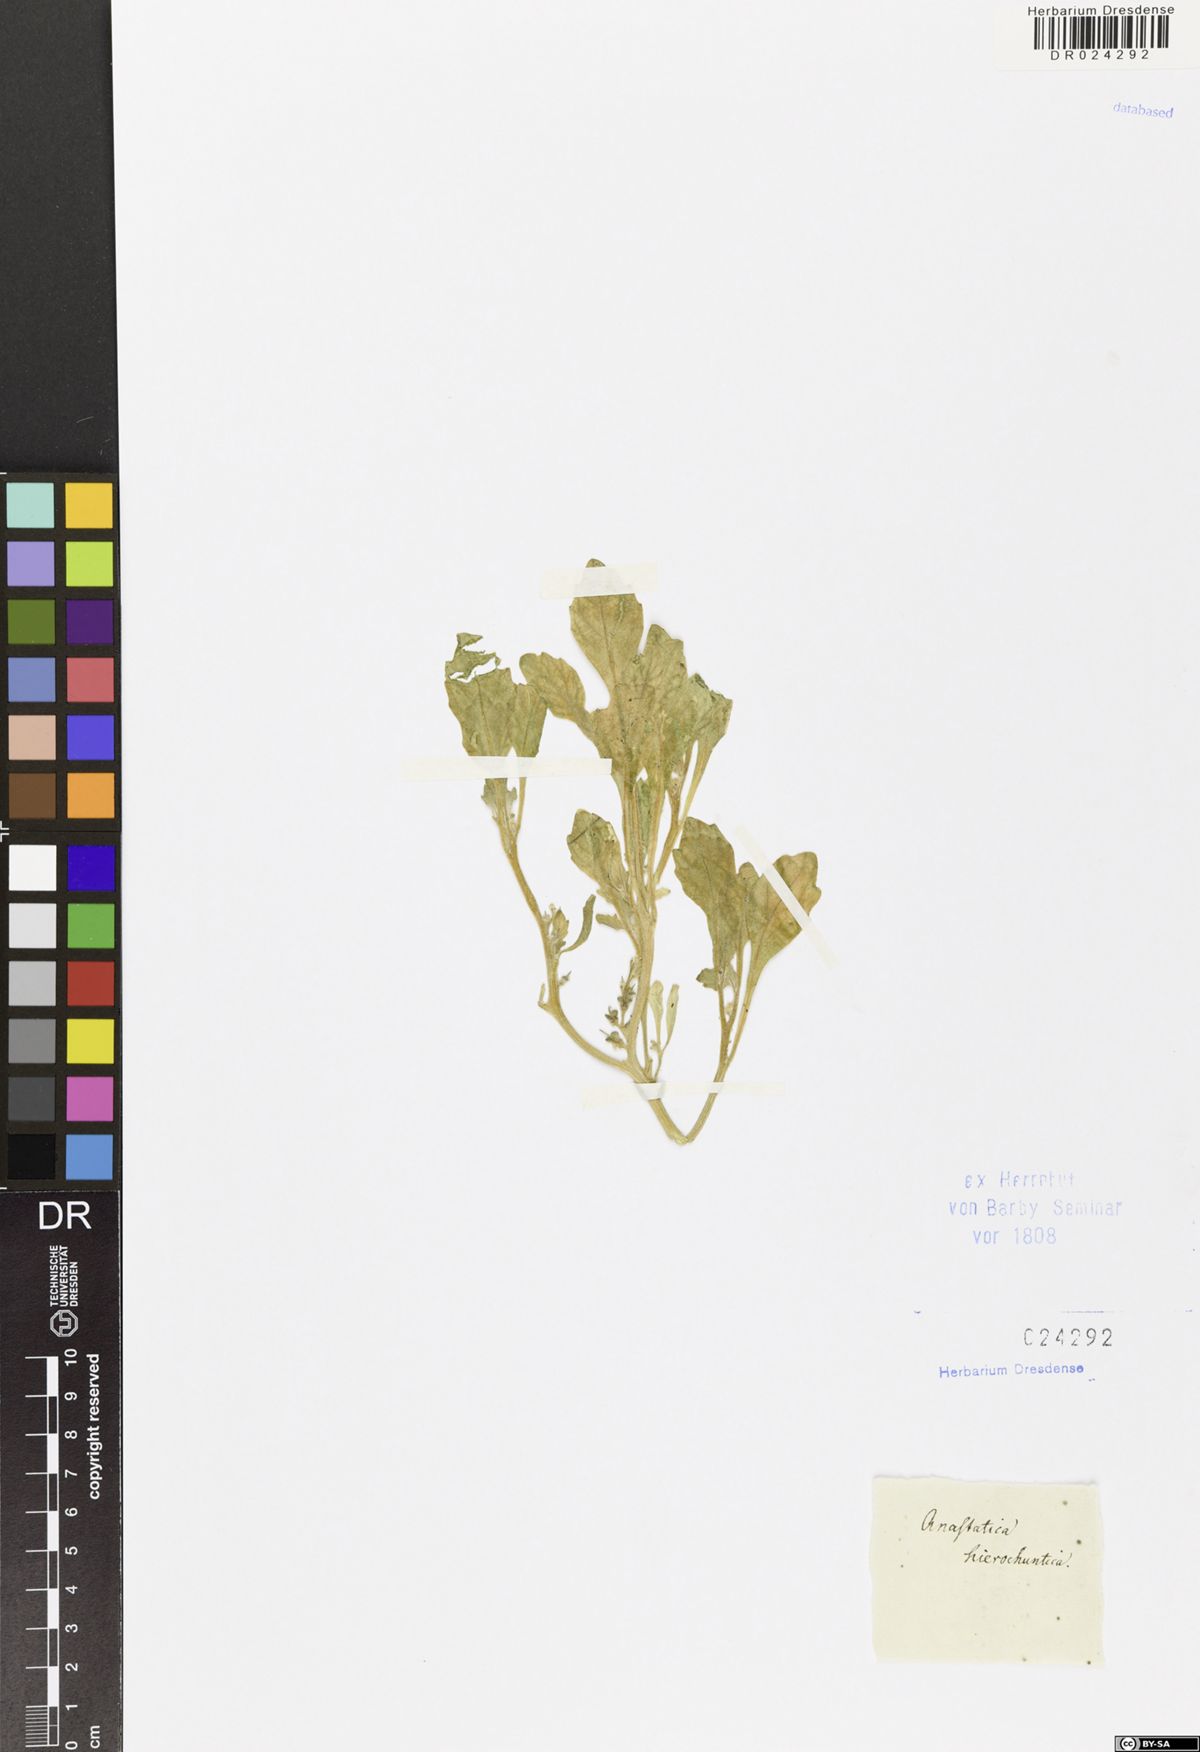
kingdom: Plantae
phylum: Tracheophyta
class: Magnoliopsida
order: Brassicales
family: Brassicaceae
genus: Anastatica
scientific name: Anastatica hierochuntica
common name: Rose-of-jericho
